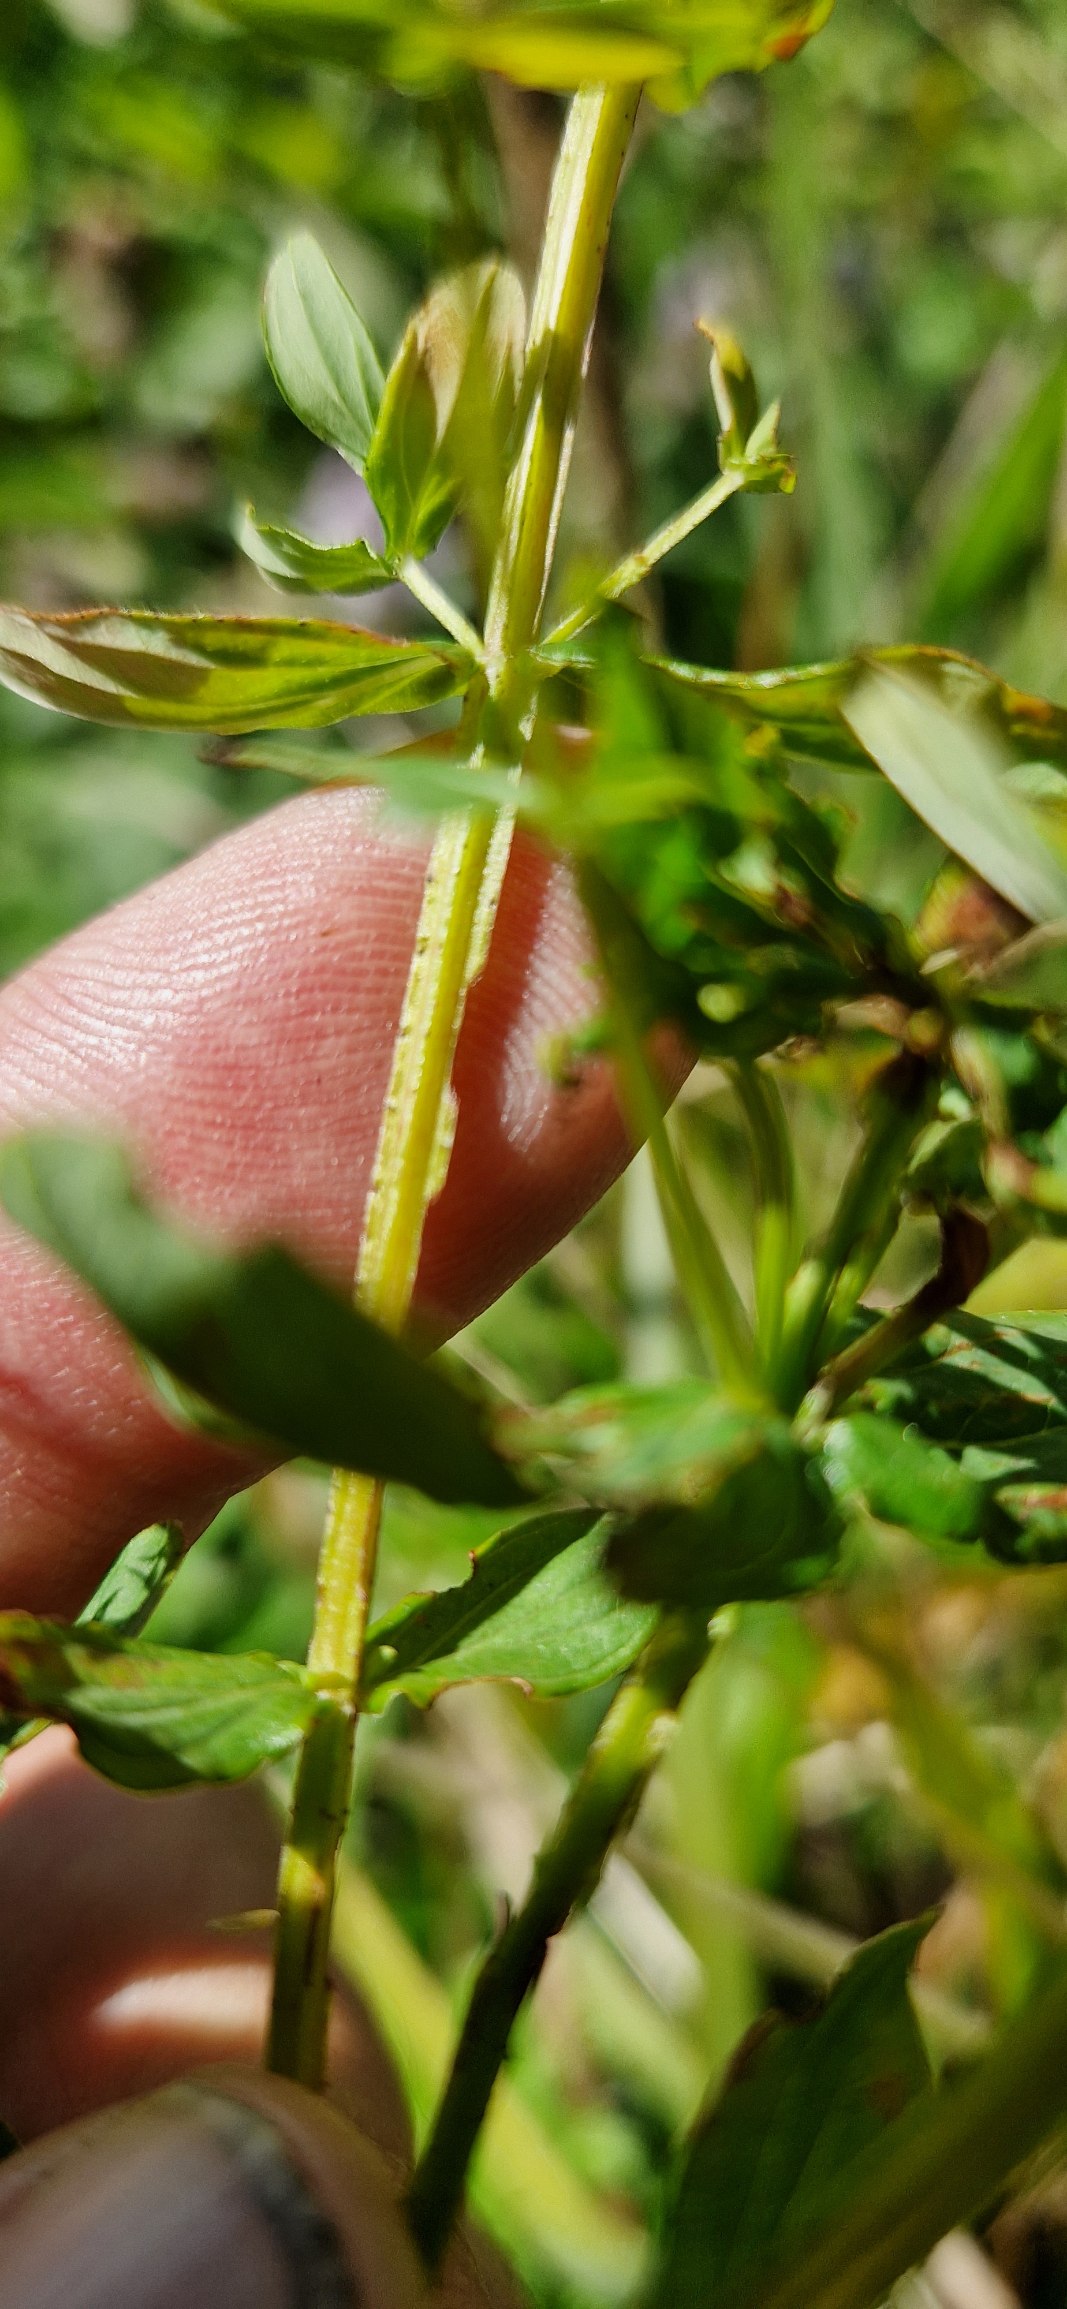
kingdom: Plantae
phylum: Tracheophyta
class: Magnoliopsida
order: Malpighiales
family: Hypericaceae
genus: Hypericum
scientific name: Hypericum tetrapterum
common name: Vinget perikon
